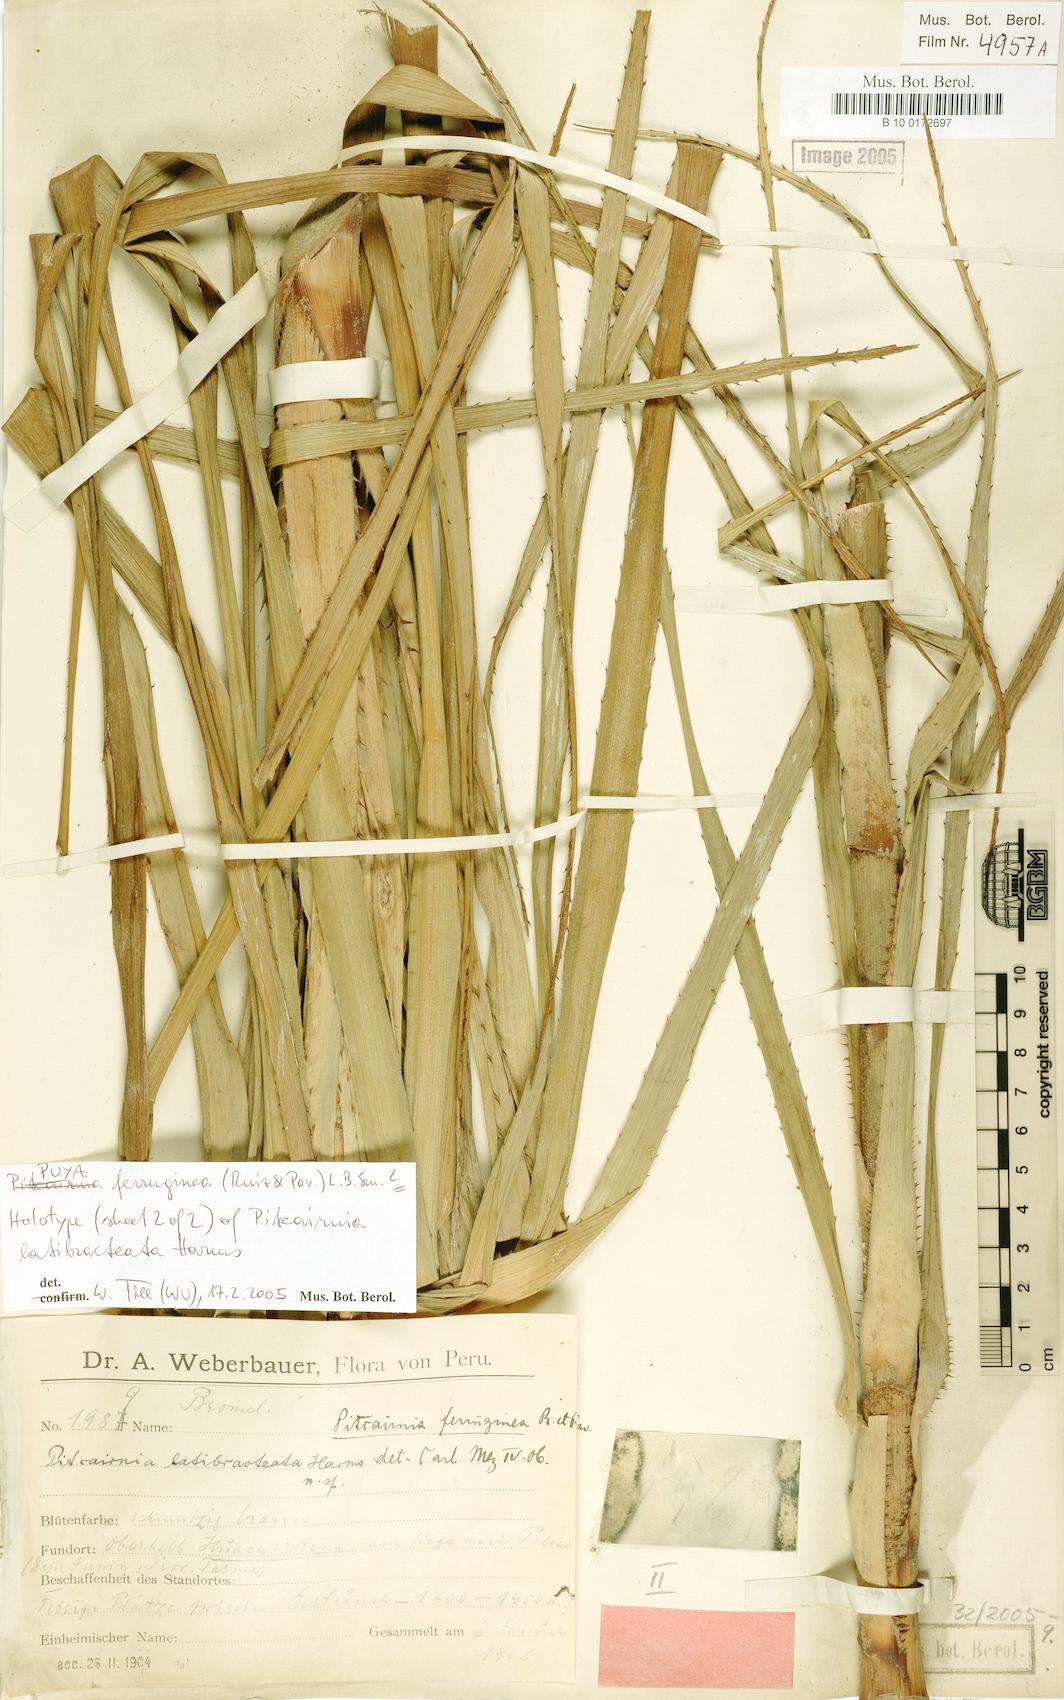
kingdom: Plantae
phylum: Tracheophyta
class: Liliopsida
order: Poales
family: Bromeliaceae
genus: Puya
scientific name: Puya ferruginea
